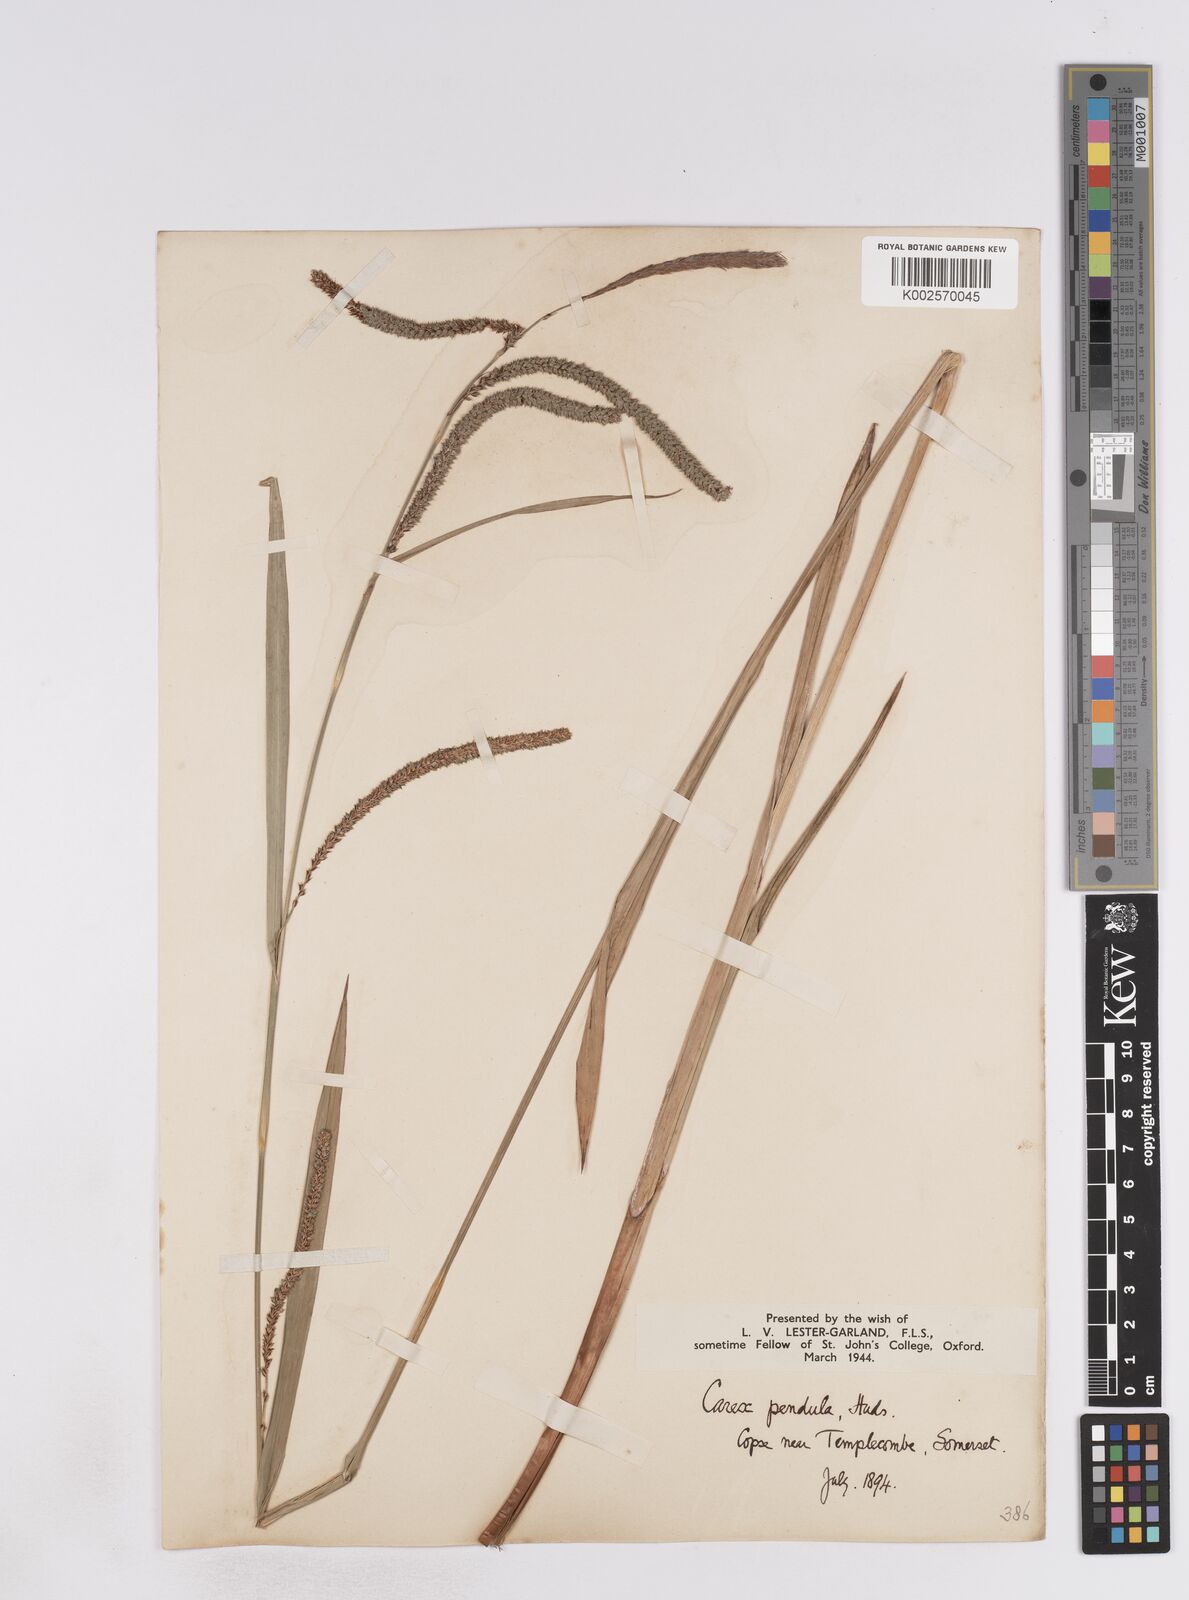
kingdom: Plantae
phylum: Tracheophyta
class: Liliopsida
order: Poales
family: Cyperaceae
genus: Carex
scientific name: Carex pendula
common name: Pendulous sedge
